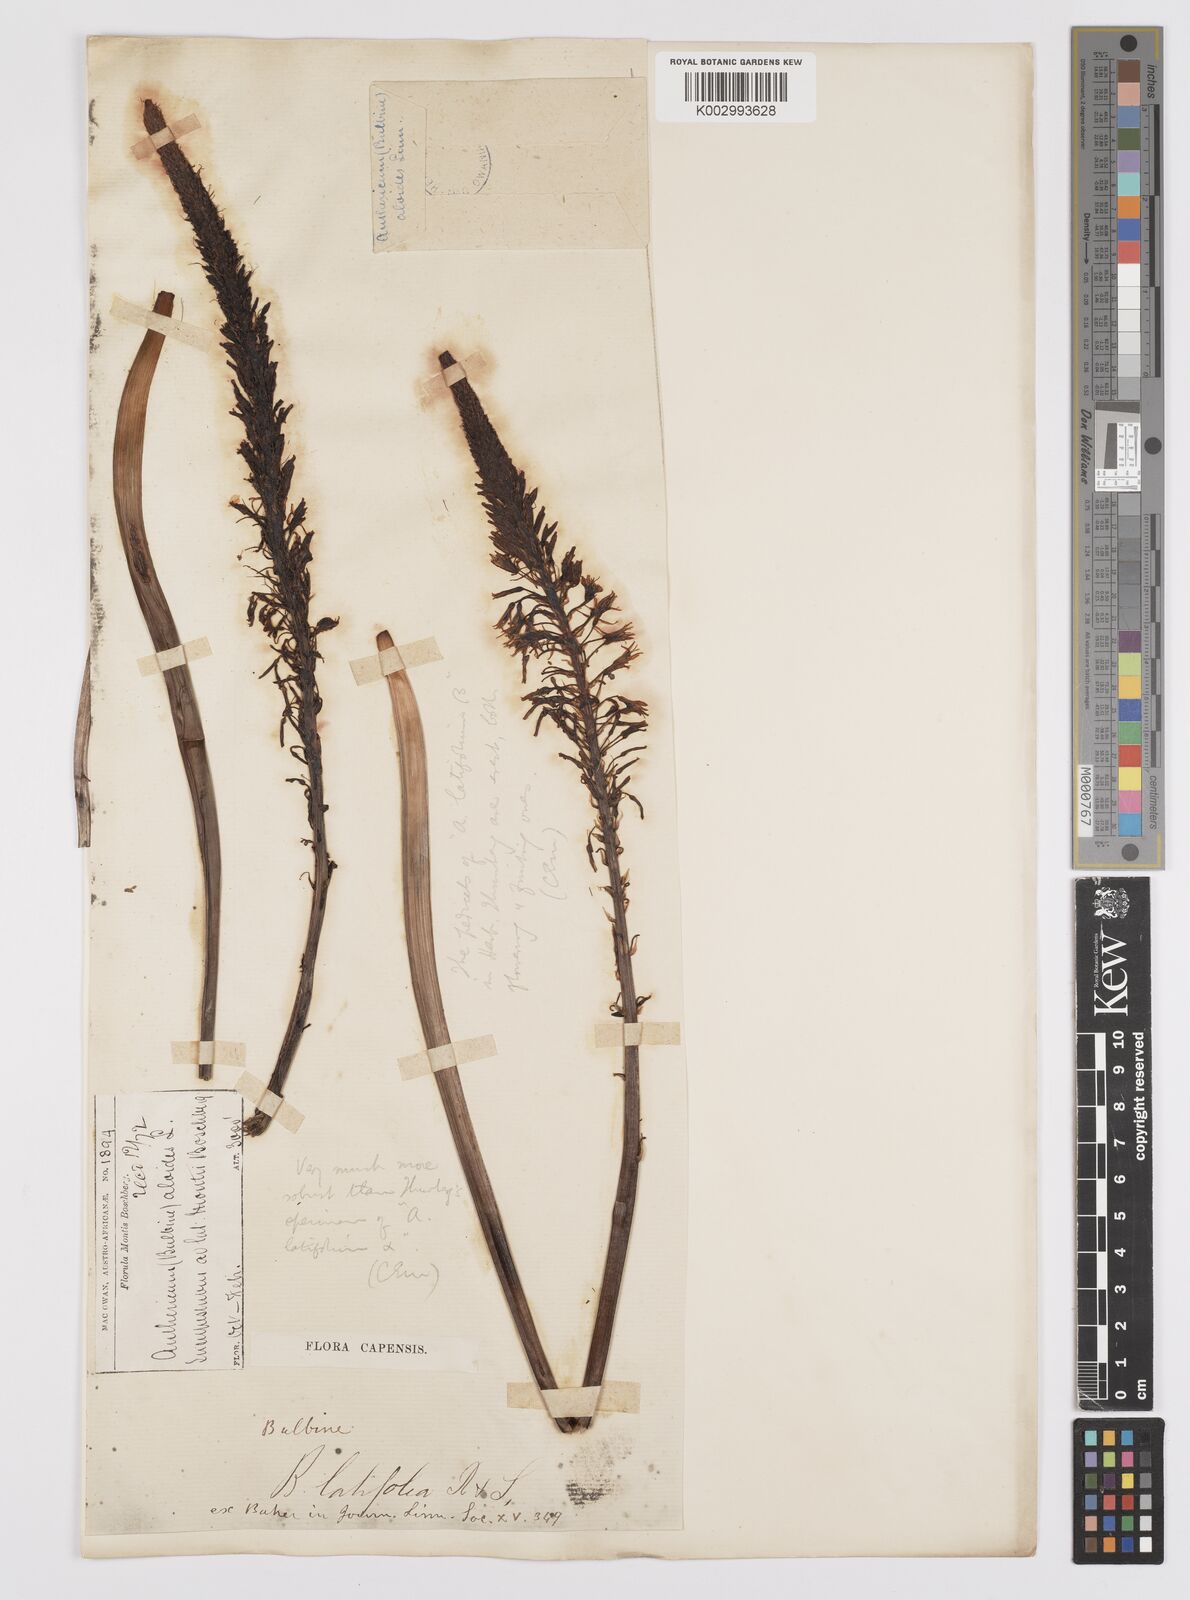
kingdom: Plantae
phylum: Tracheophyta
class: Liliopsida
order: Asparagales
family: Asphodelaceae
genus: Bulbine
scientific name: Bulbine latifolia
